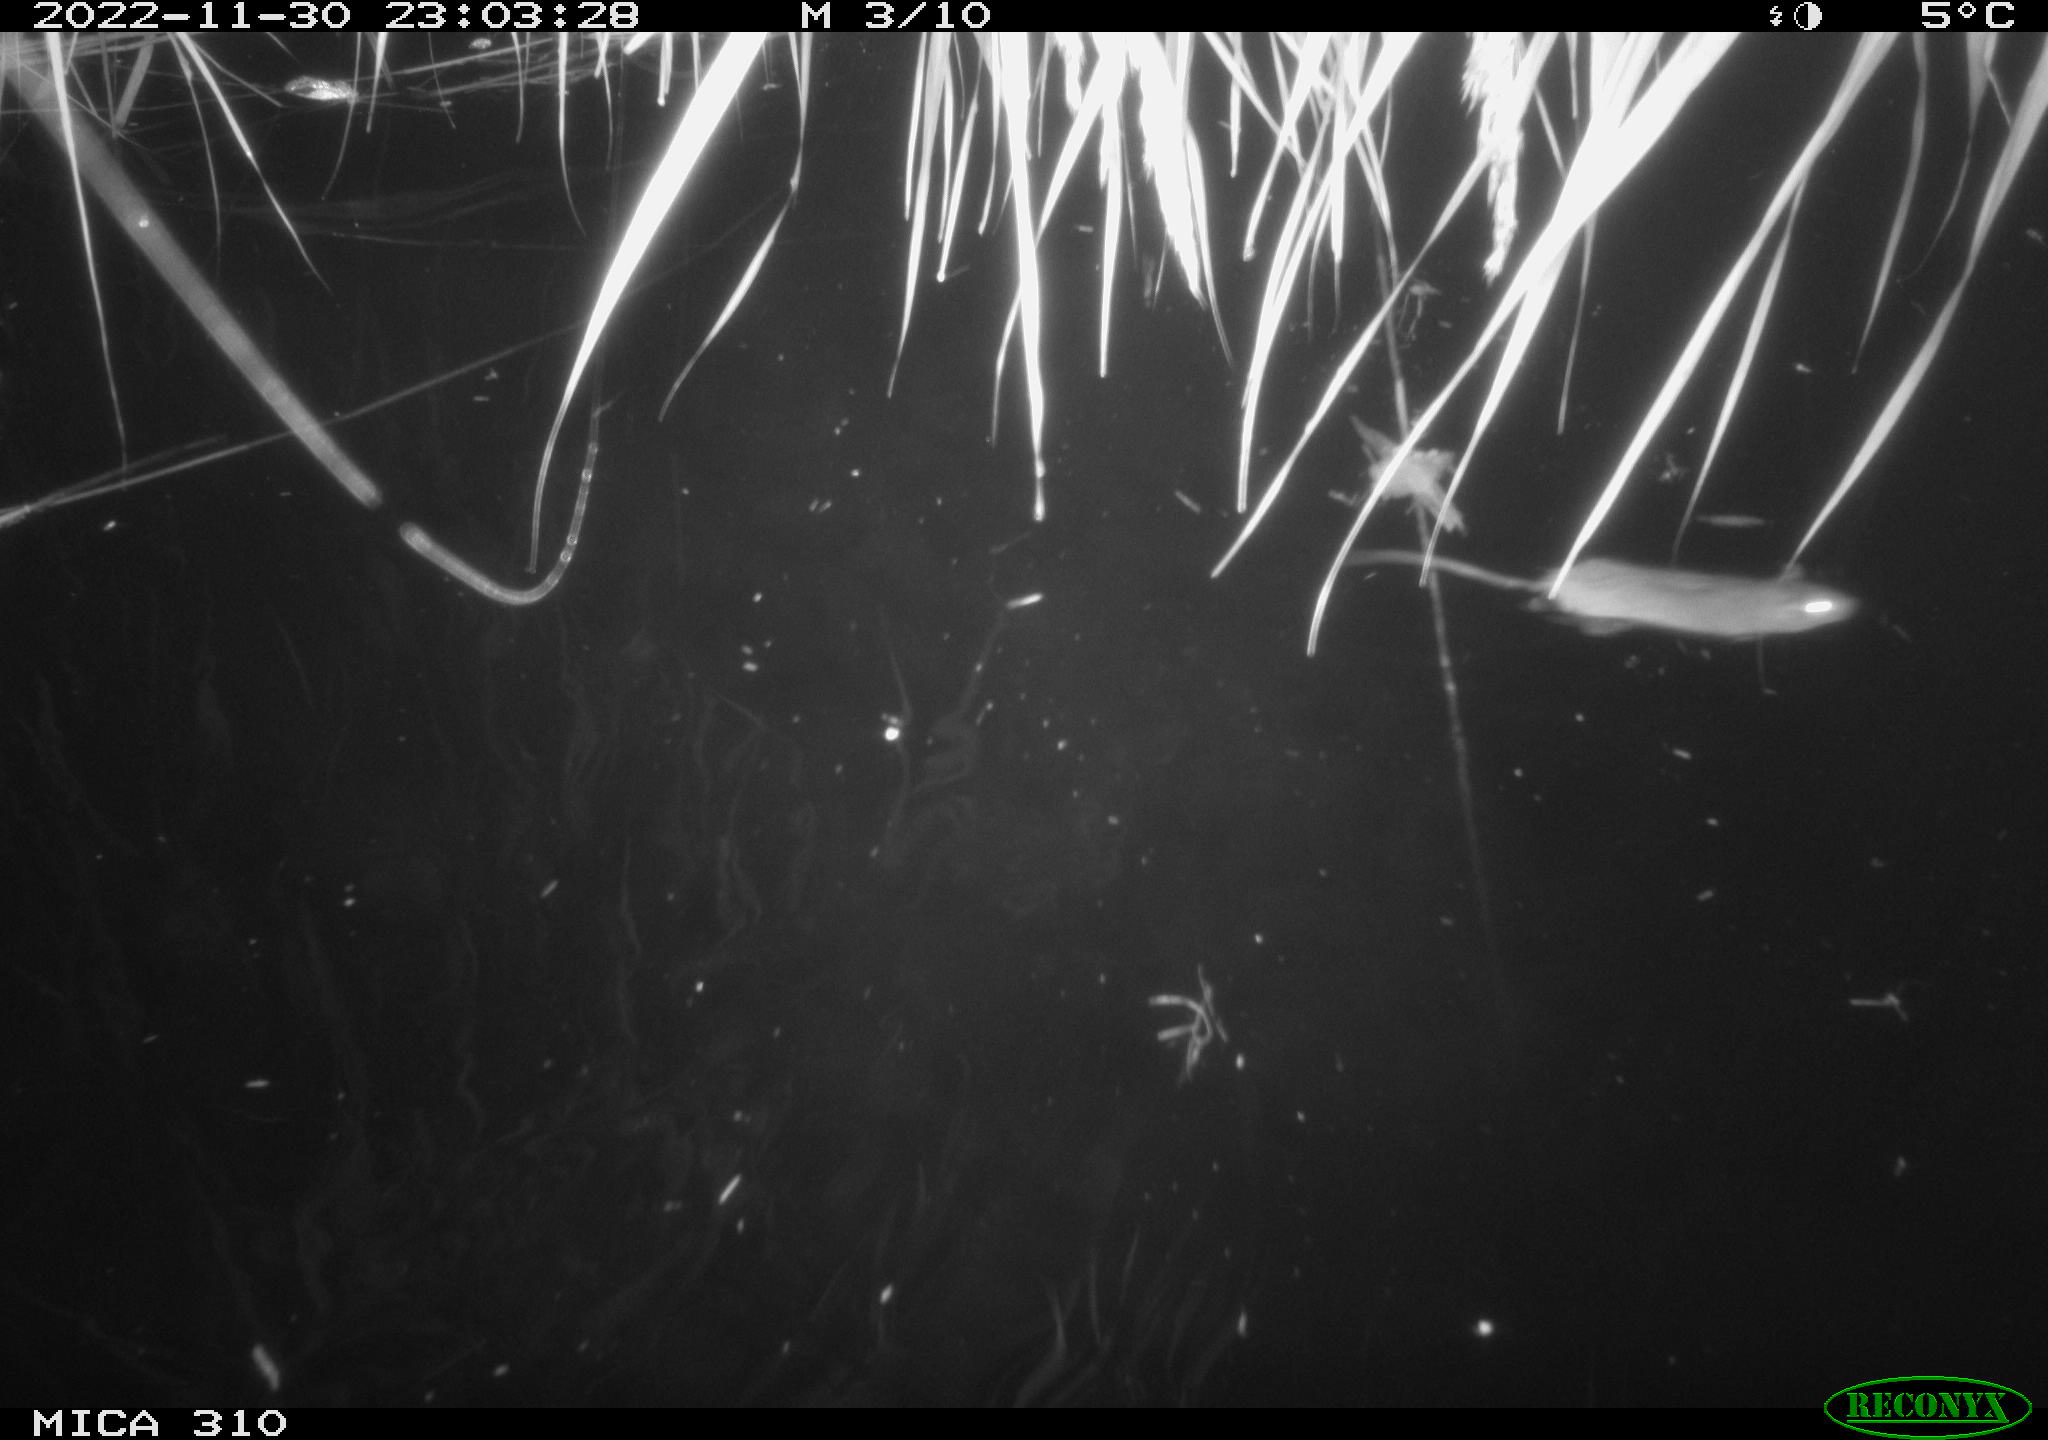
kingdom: Animalia
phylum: Chordata
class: Mammalia
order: Rodentia
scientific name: Rodentia
